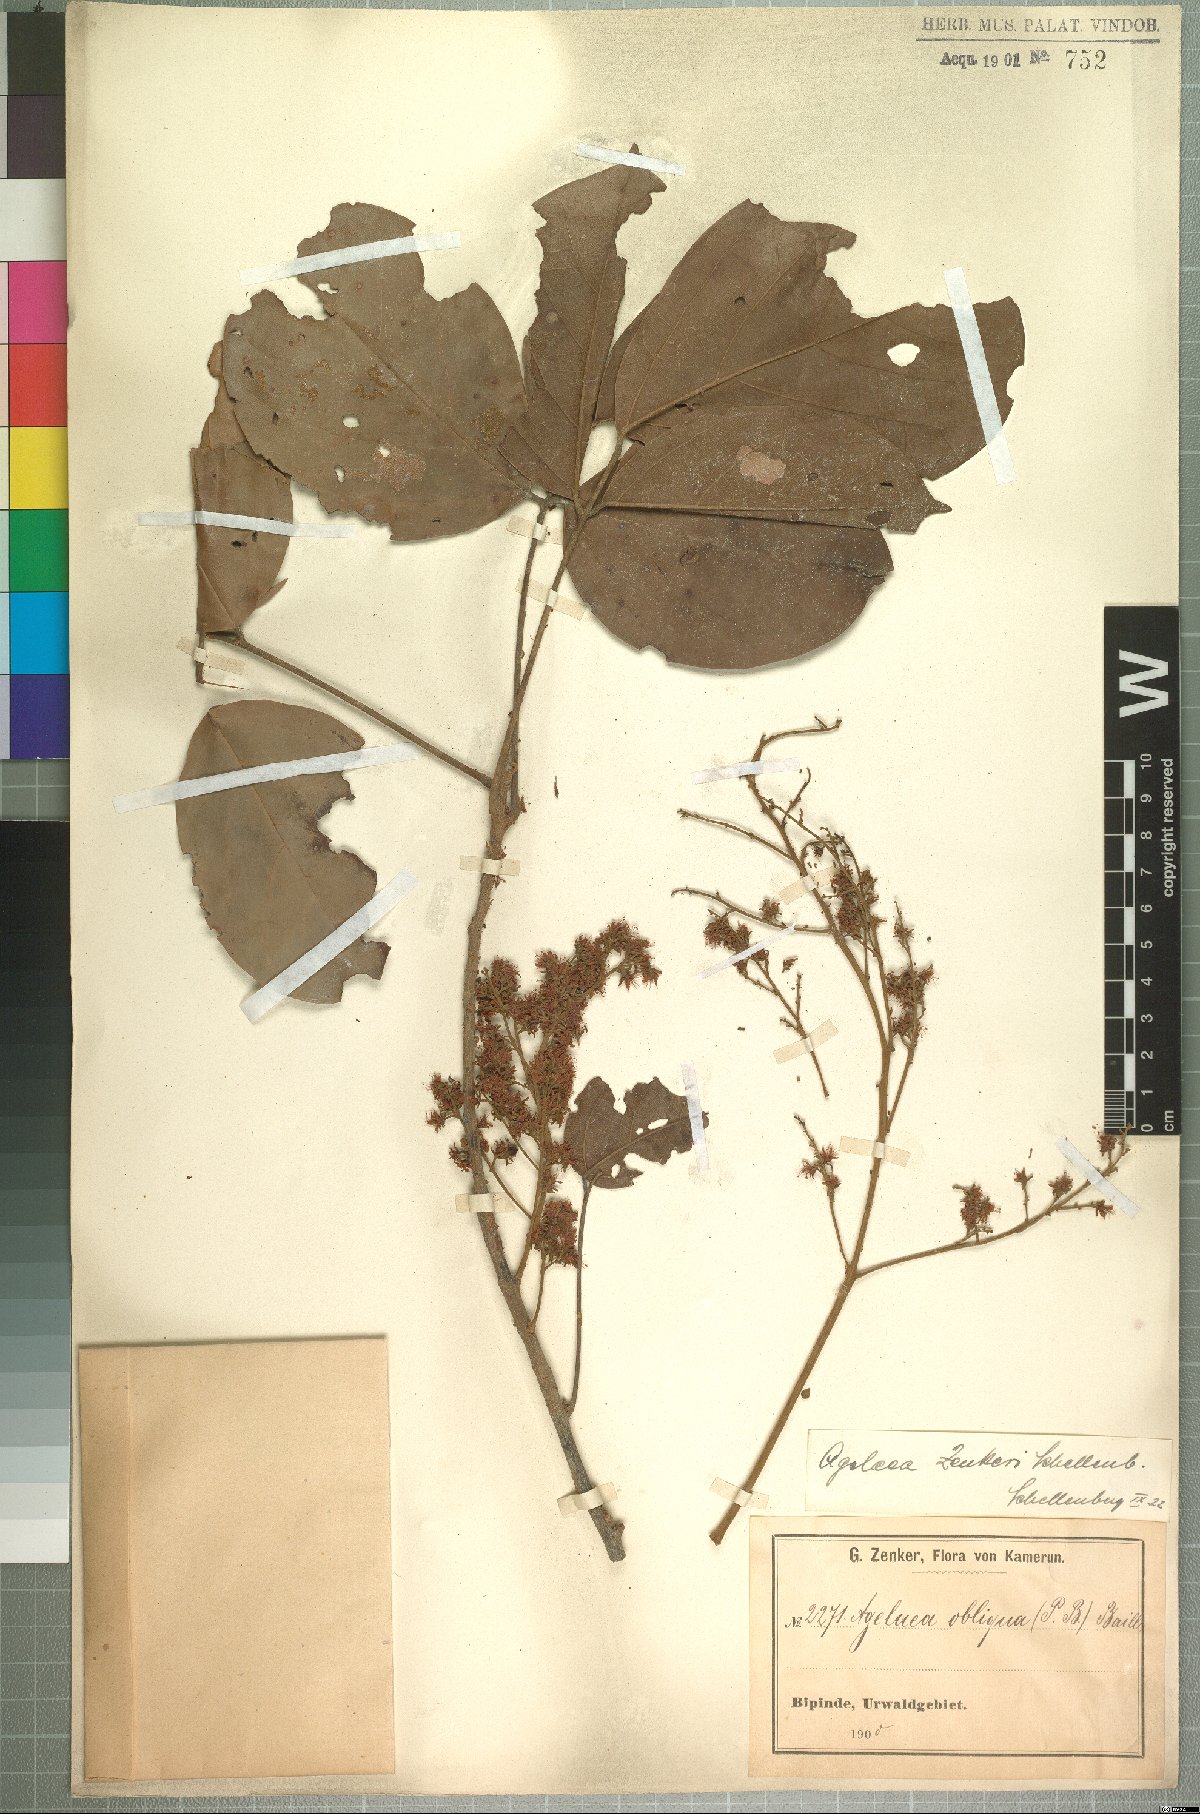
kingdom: Plantae
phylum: Tracheophyta
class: Magnoliopsida
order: Oxalidales
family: Connaraceae
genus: Agelaea
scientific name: Agelaea pentagyna
